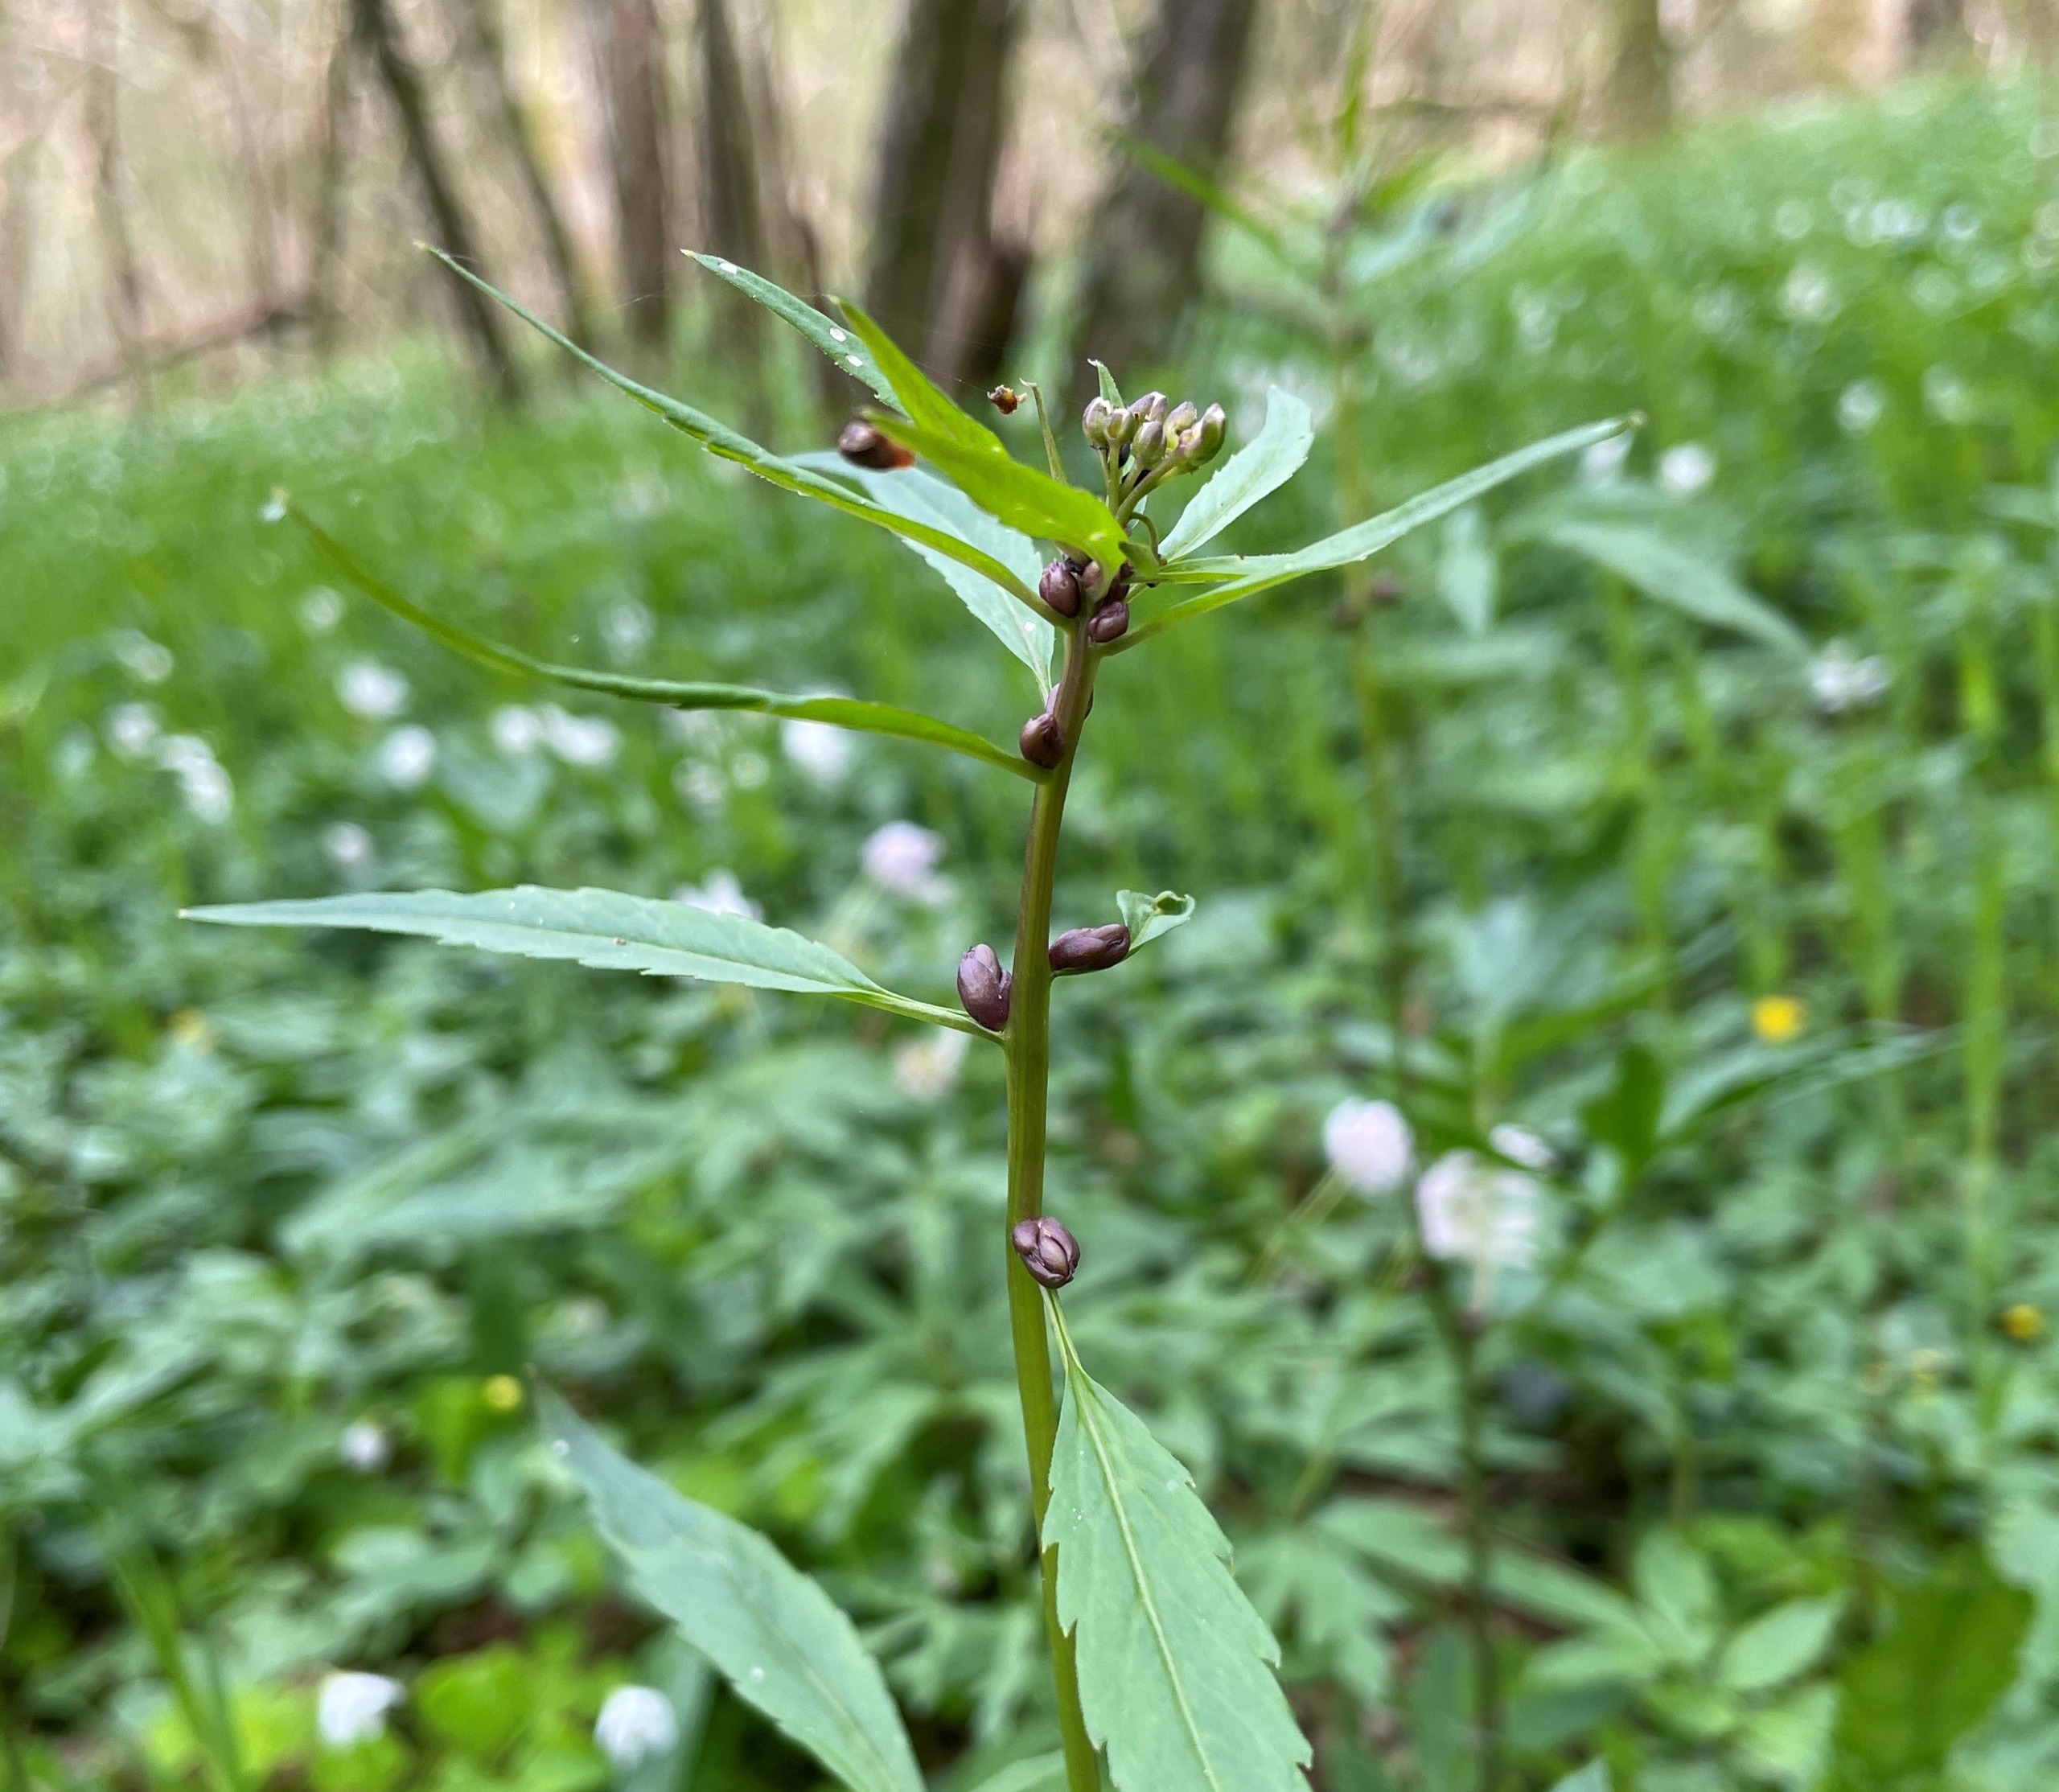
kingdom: Plantae
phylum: Tracheophyta
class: Magnoliopsida
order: Brassicales
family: Brassicaceae
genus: Cardamine
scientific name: Cardamine bulbifera
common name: Tandrod
